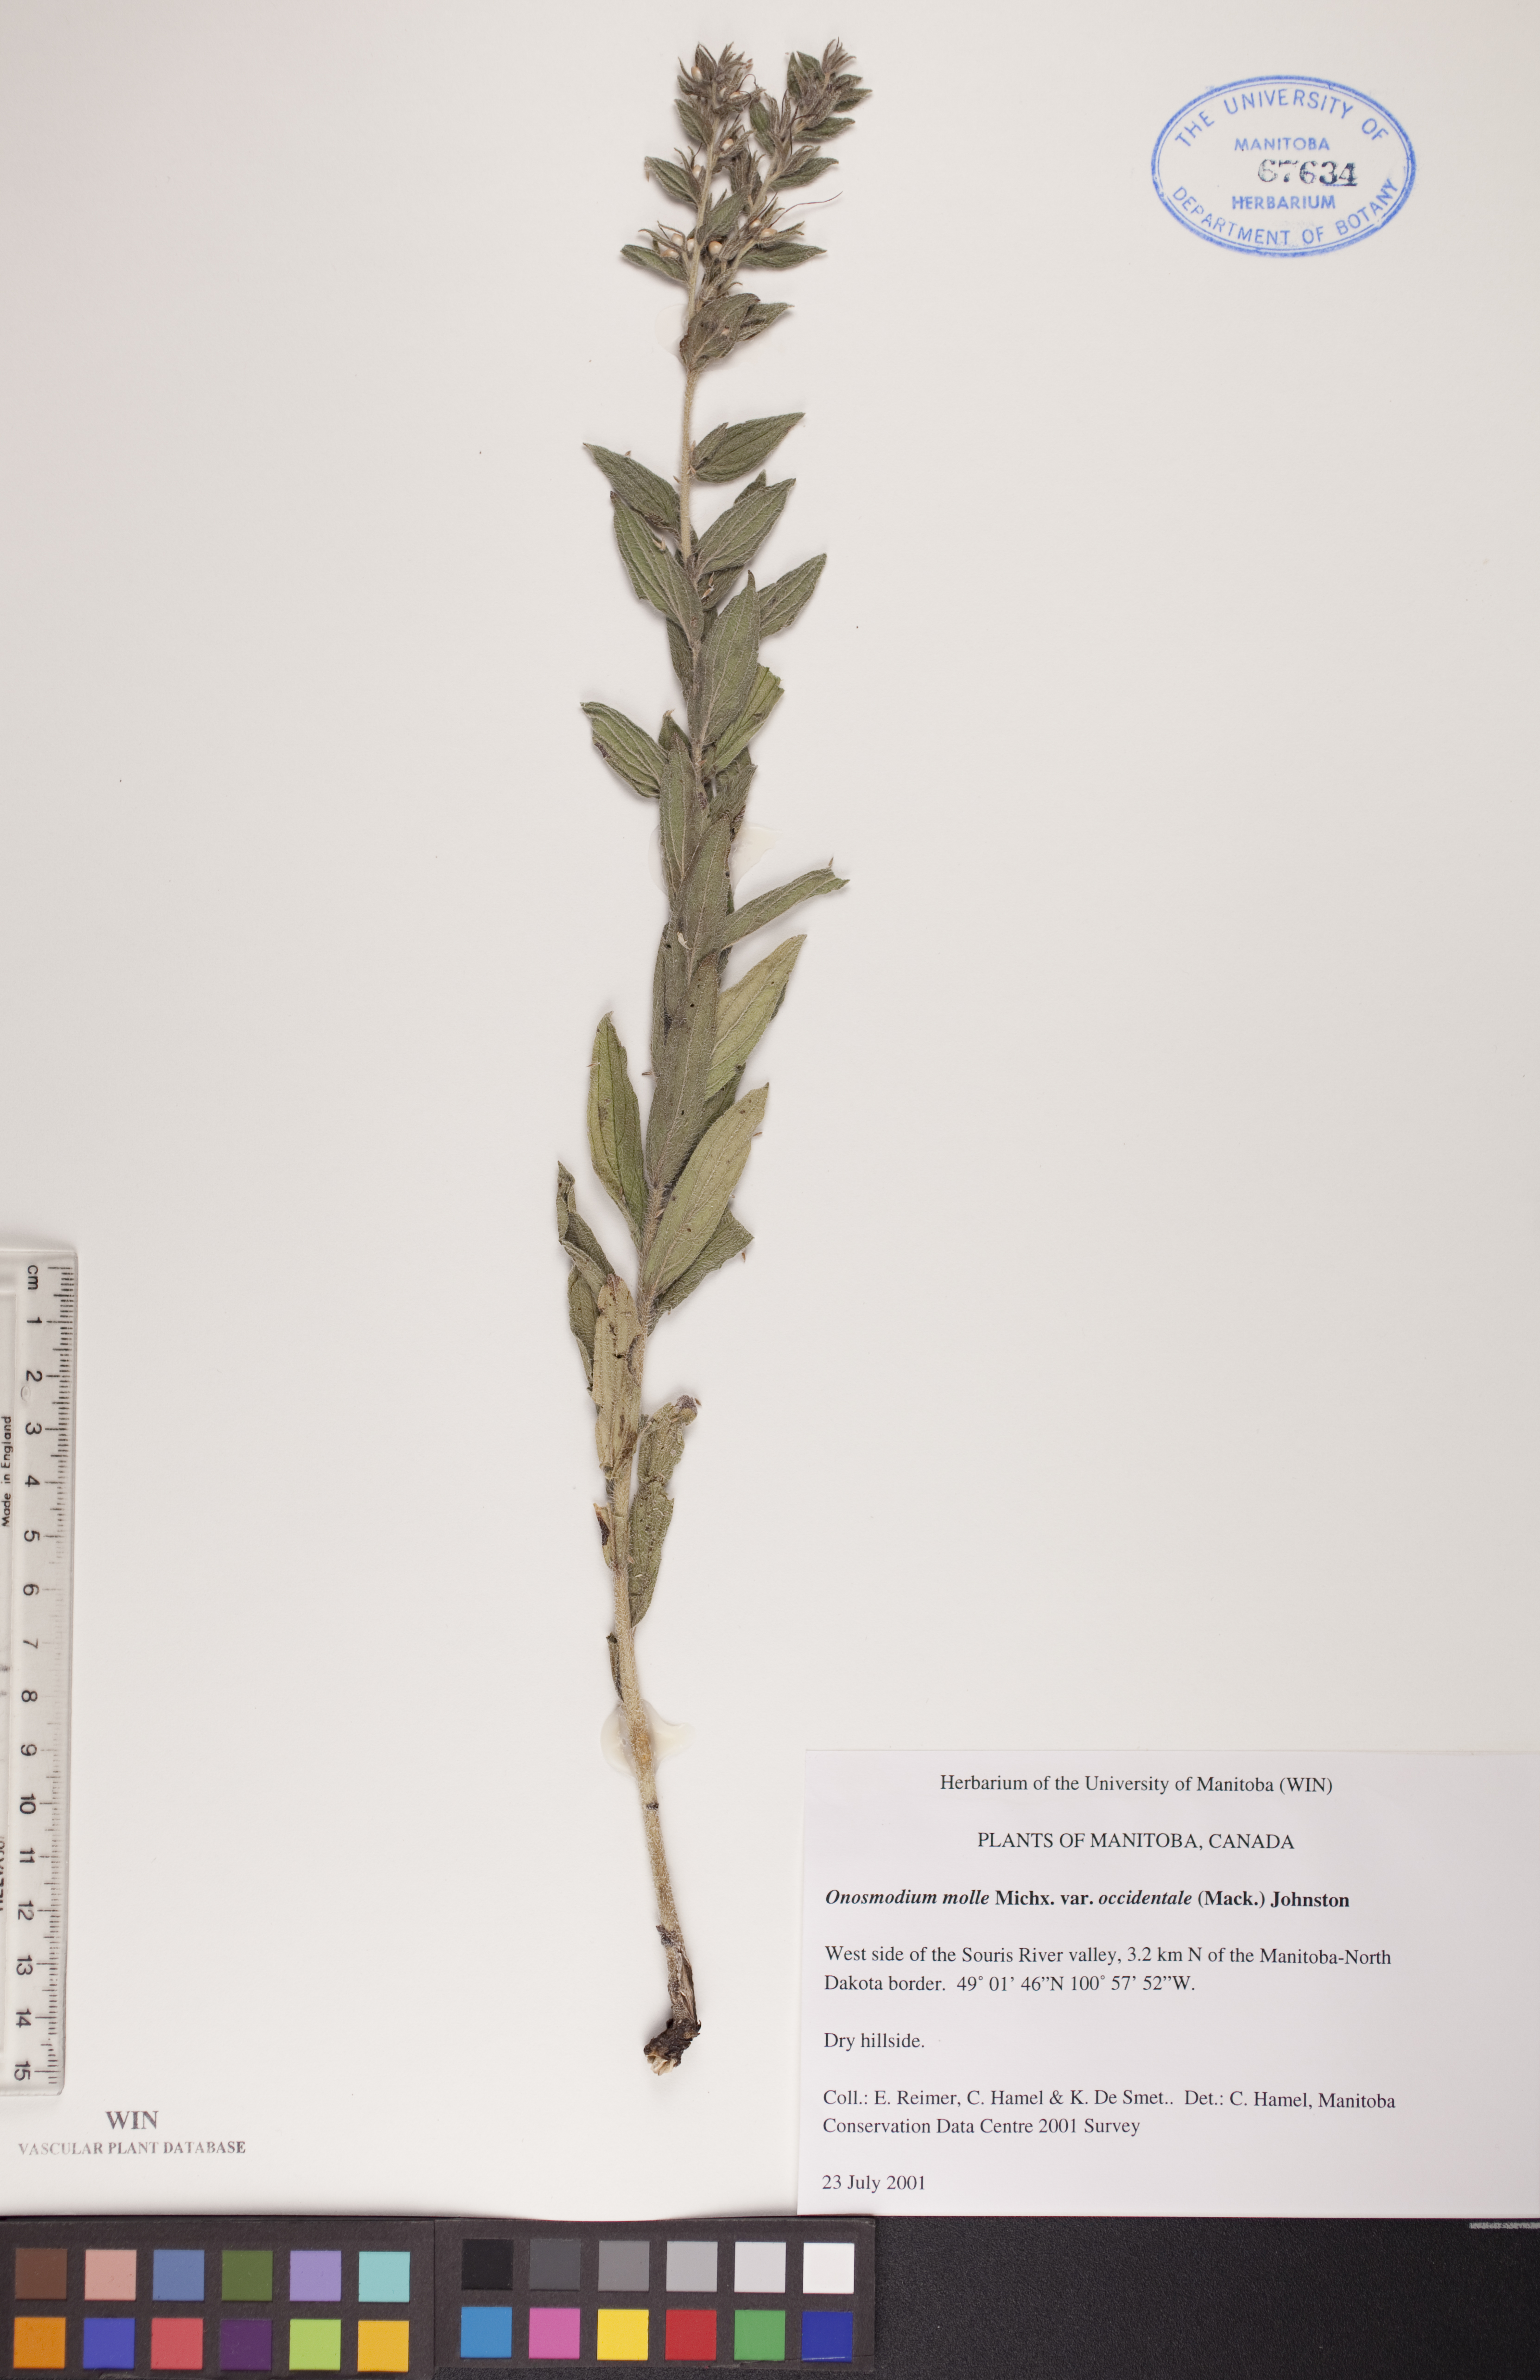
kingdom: Plantae
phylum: Tracheophyta
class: Magnoliopsida
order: Boraginales
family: Boraginaceae
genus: Lithospermum
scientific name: Lithospermum occidentale
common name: Western false gromwell
